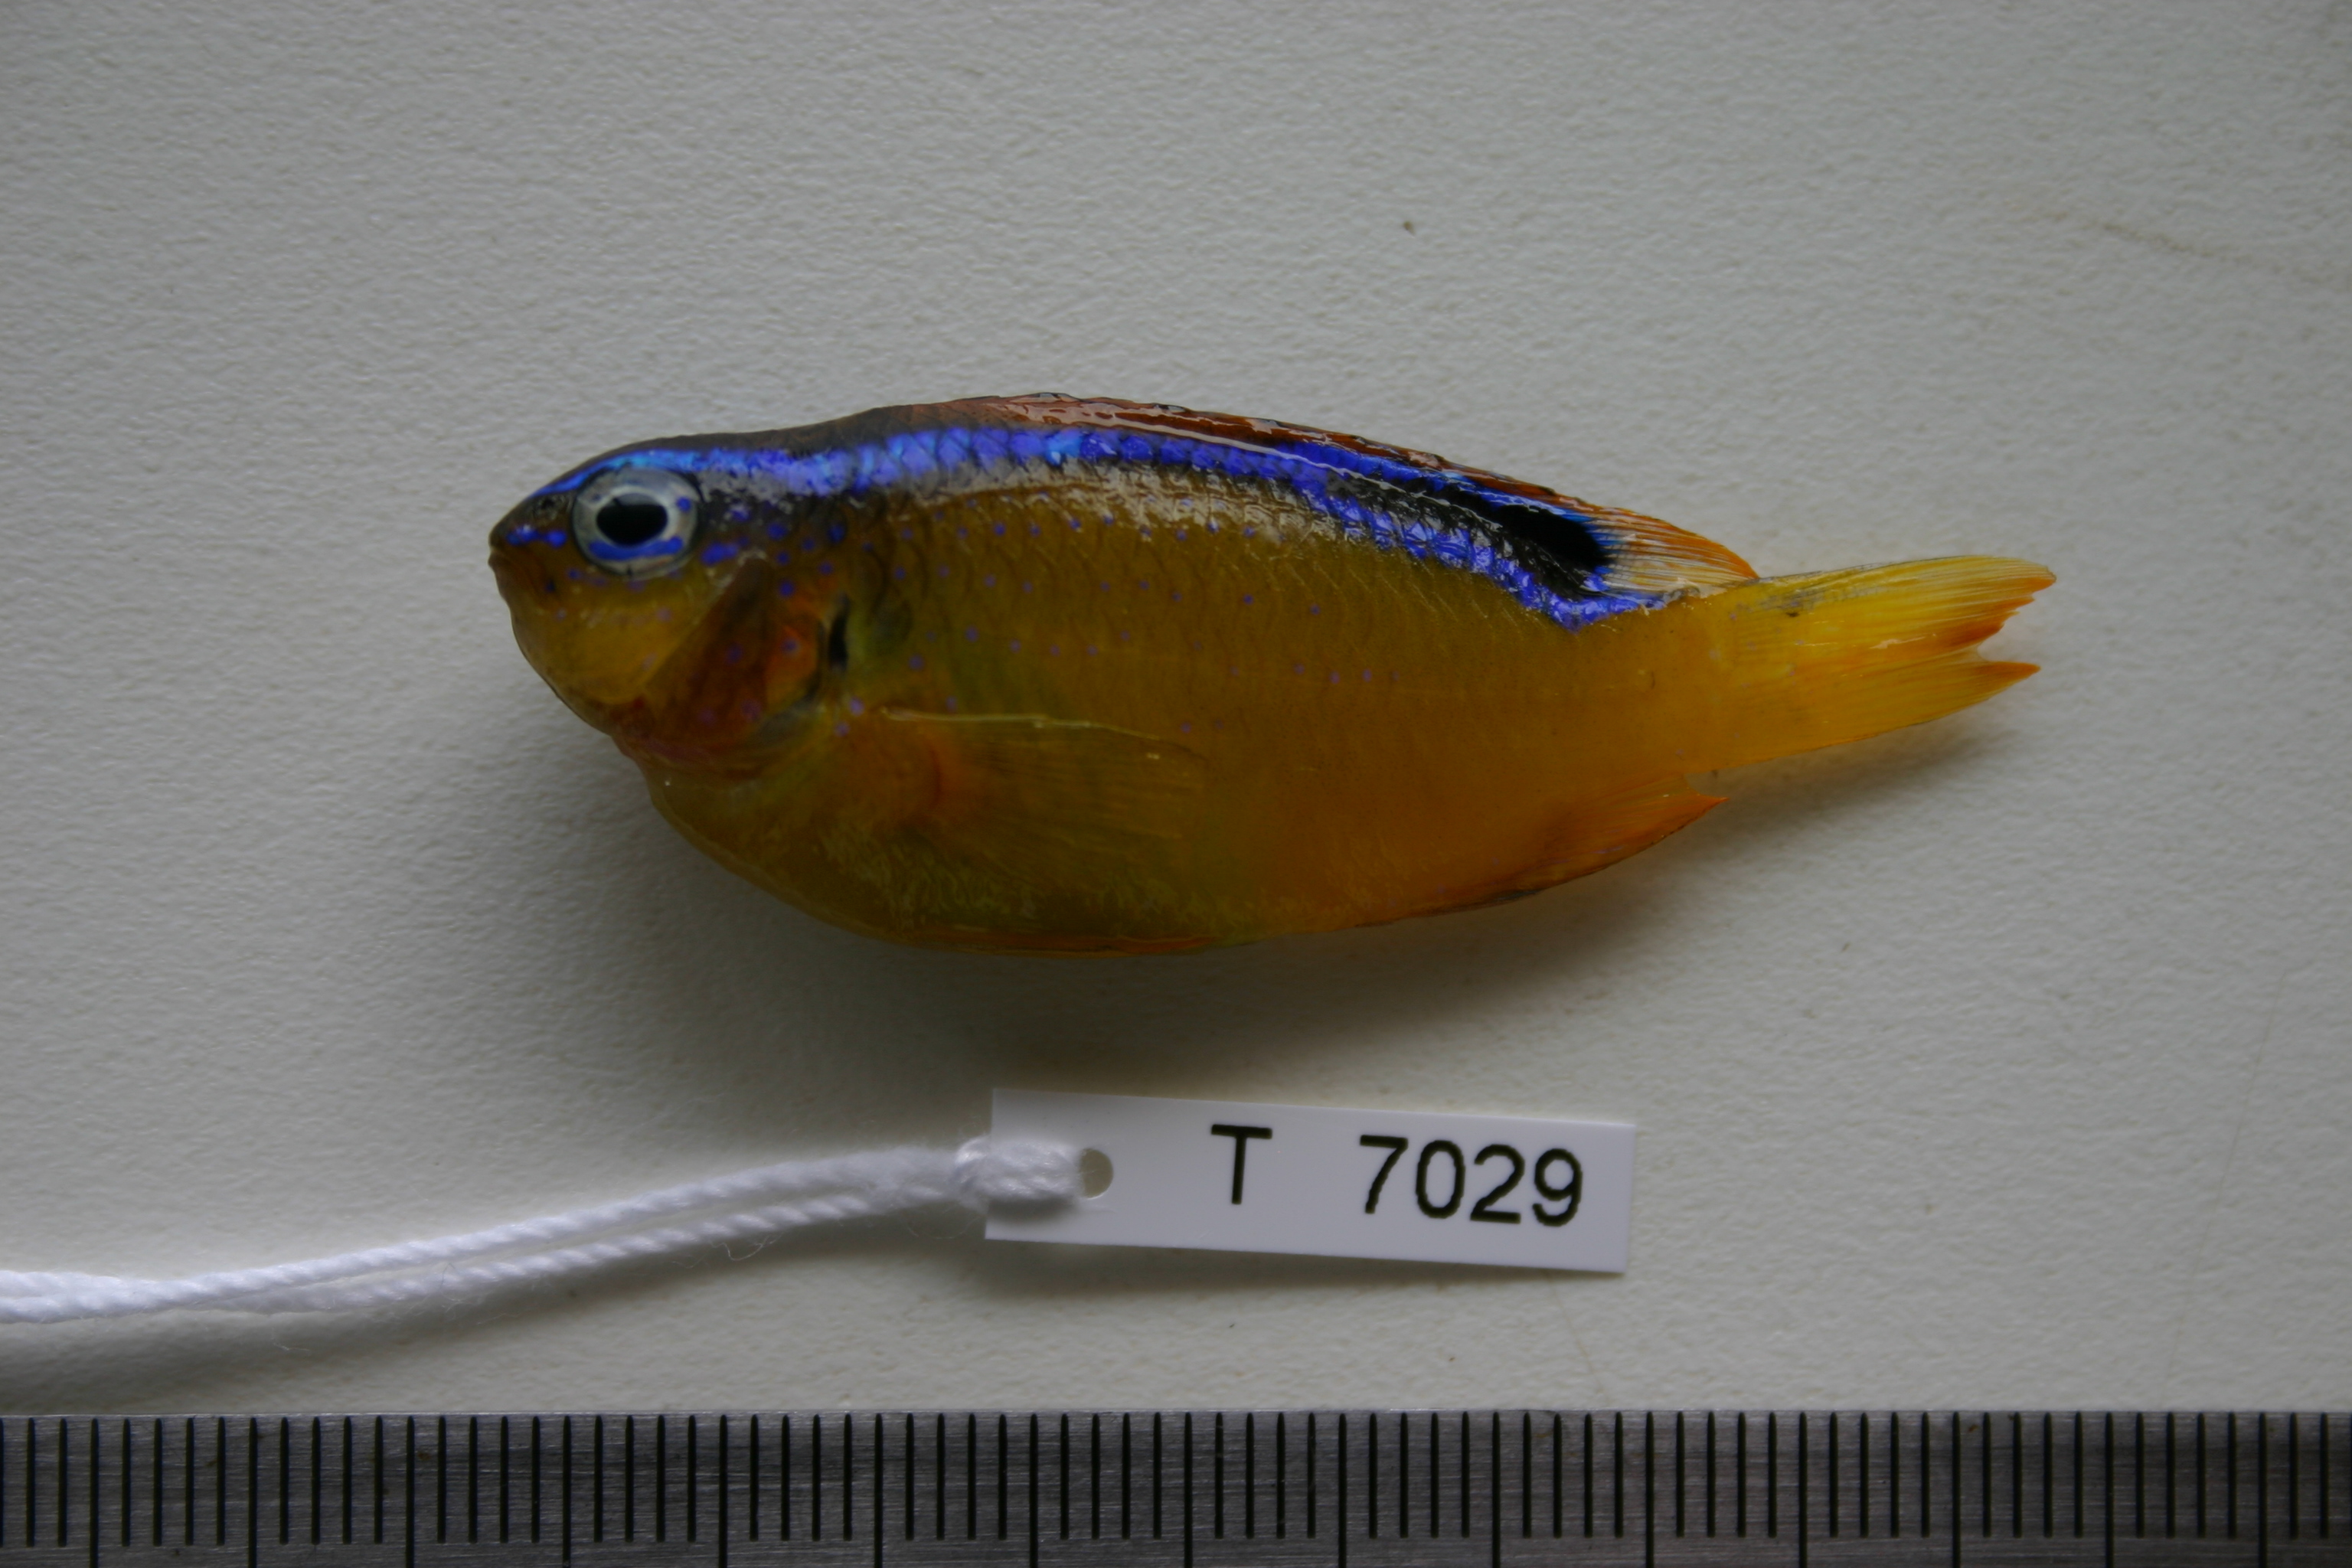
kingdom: Animalia
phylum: Chordata
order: Perciformes
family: Pomacentridae
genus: Chrysiptera
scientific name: Chrysiptera brownriggii
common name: Surge demoiselle
